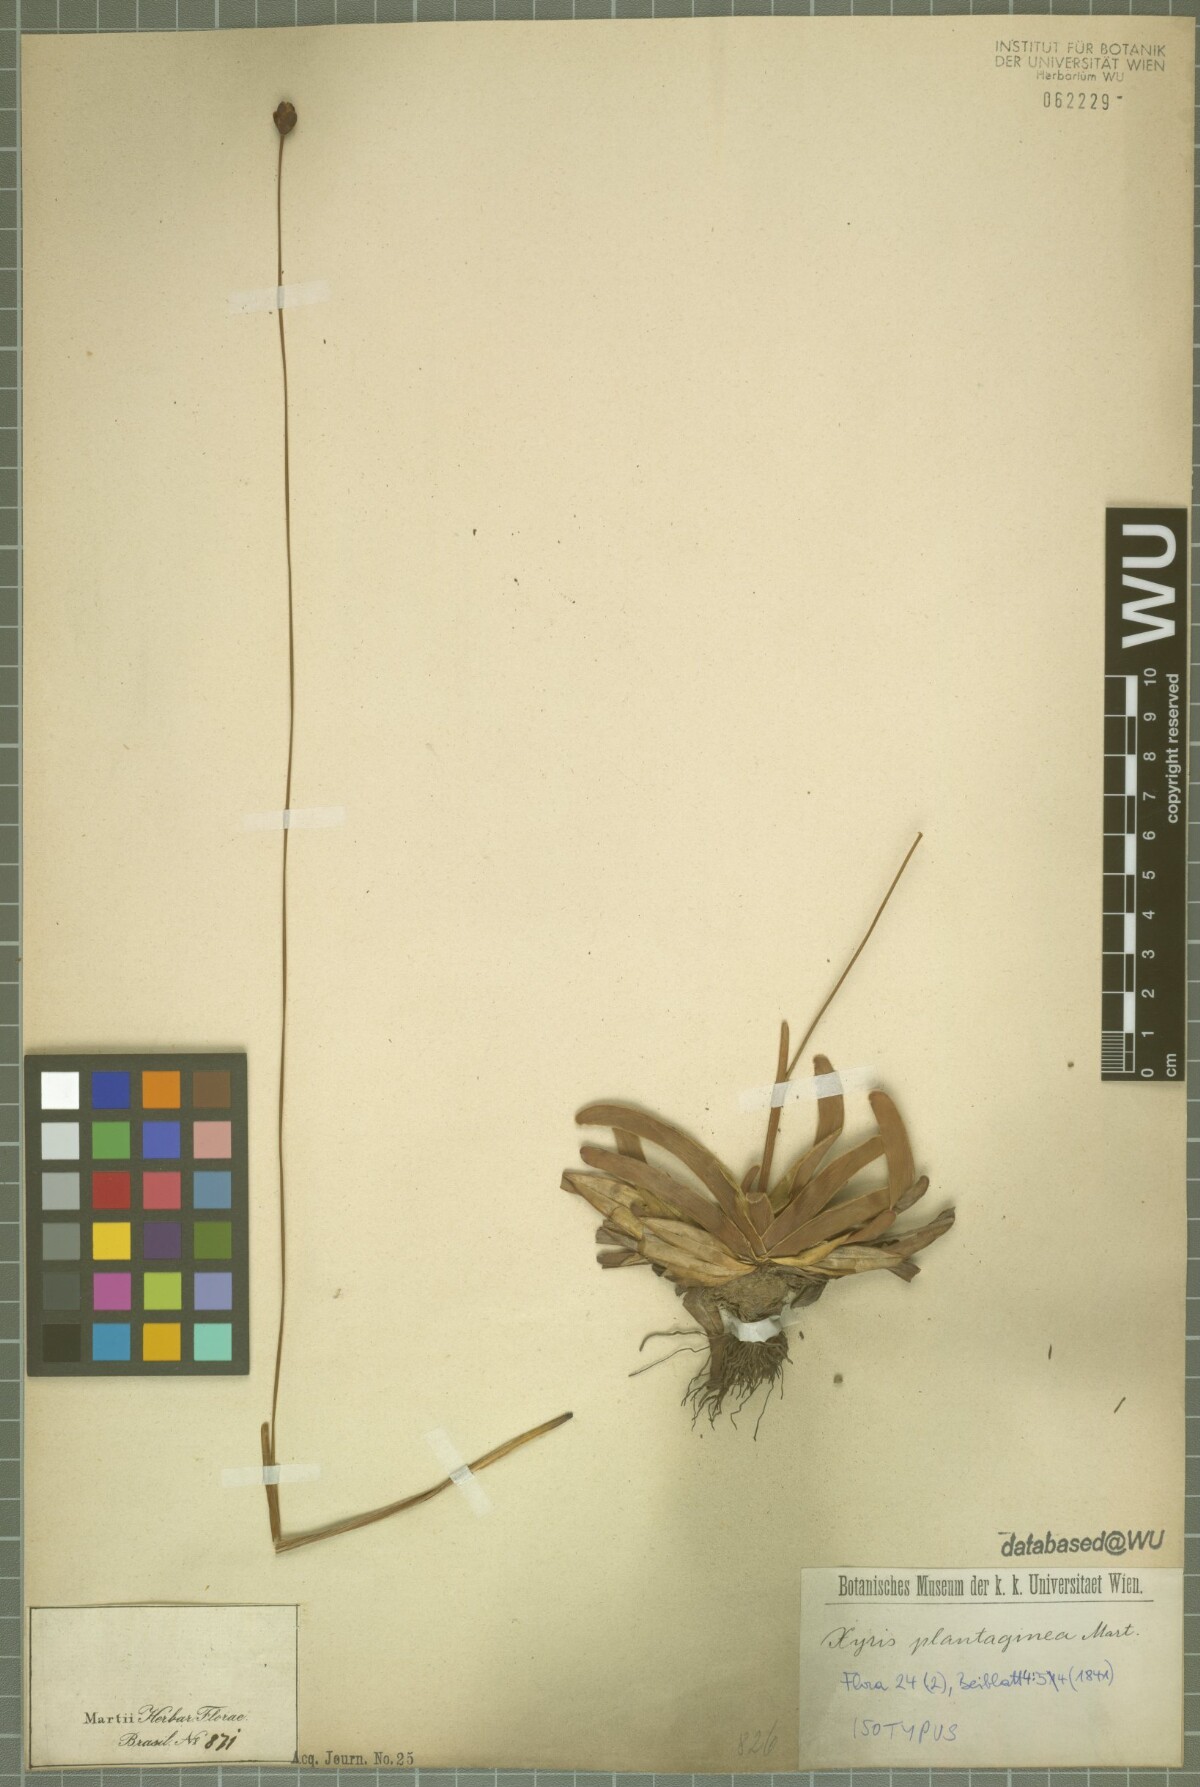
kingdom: Plantae
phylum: Tracheophyta
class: Liliopsida
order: Poales
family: Xyridaceae
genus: Xyris
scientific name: Xyris plantaginea
